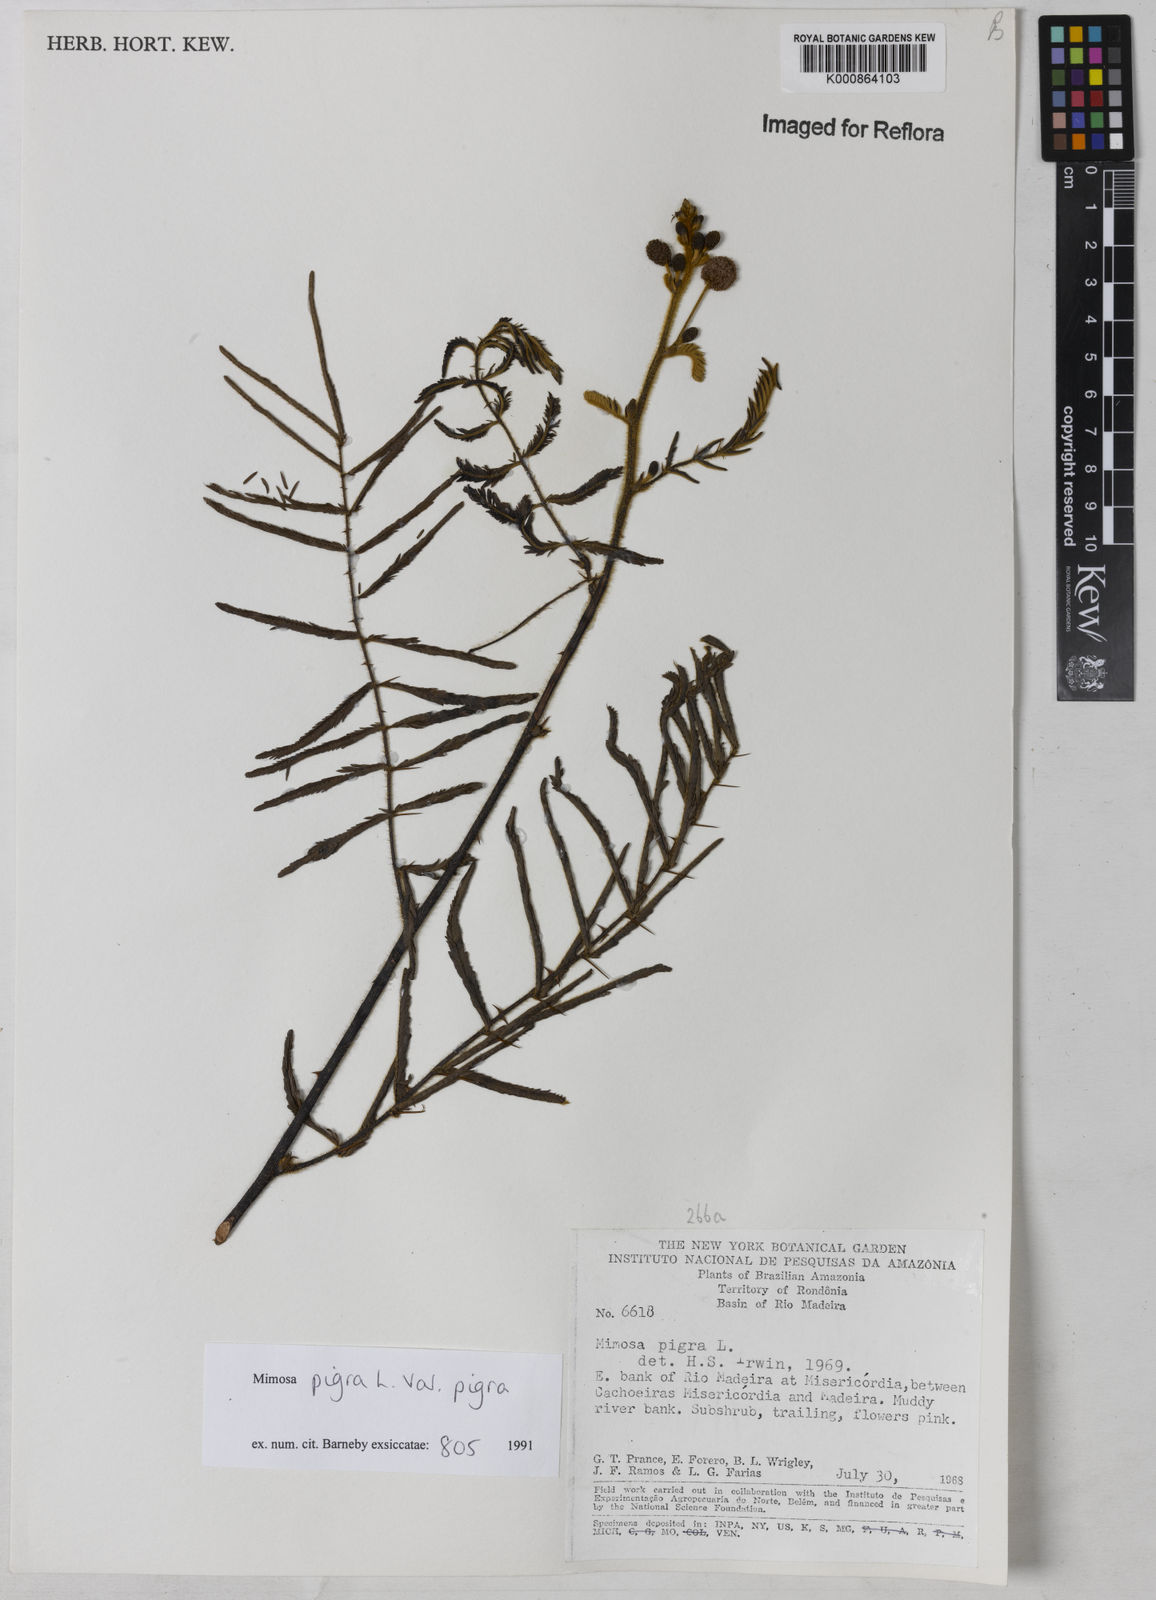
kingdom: Plantae
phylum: Tracheophyta
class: Magnoliopsida
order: Fabales
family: Fabaceae
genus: Mimosa
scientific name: Mimosa pigra
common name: Black mimosa
